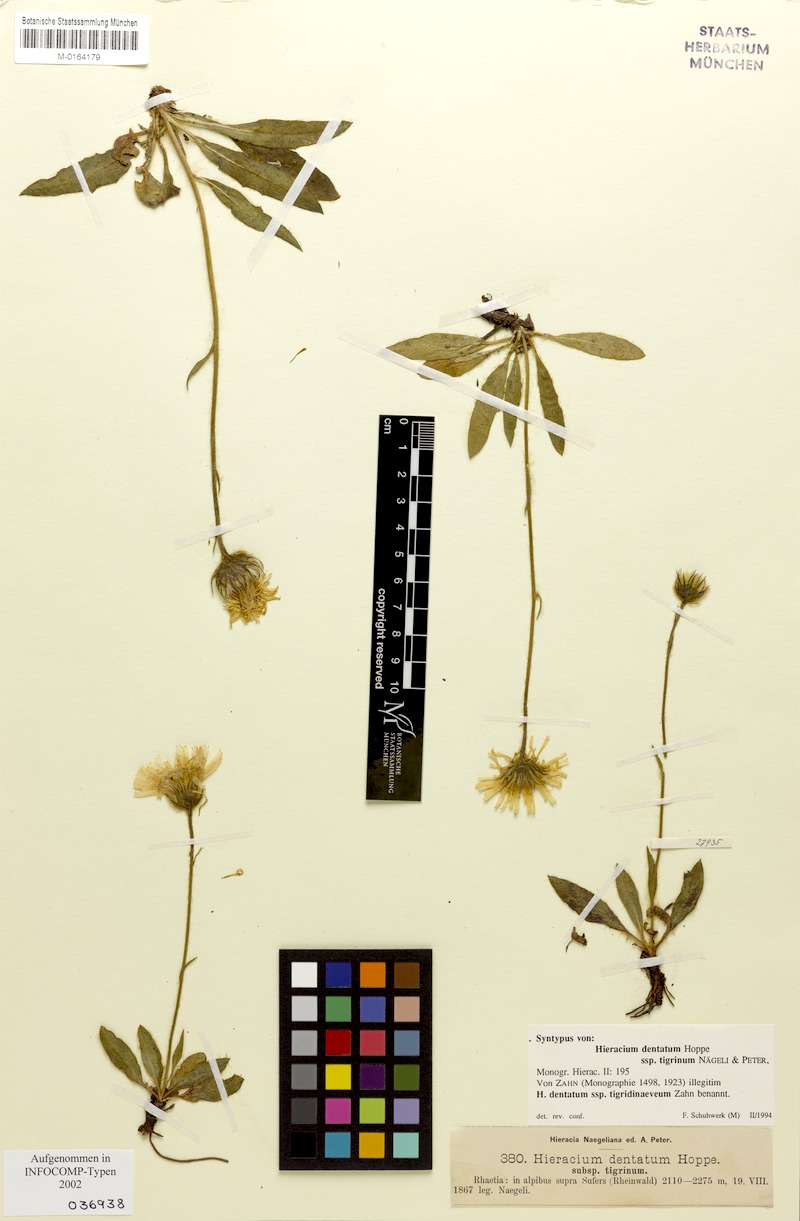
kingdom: Plantae
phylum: Tracheophyta
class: Magnoliopsida
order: Asterales
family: Asteraceae
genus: Hieracium
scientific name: Hieracium dentatum
